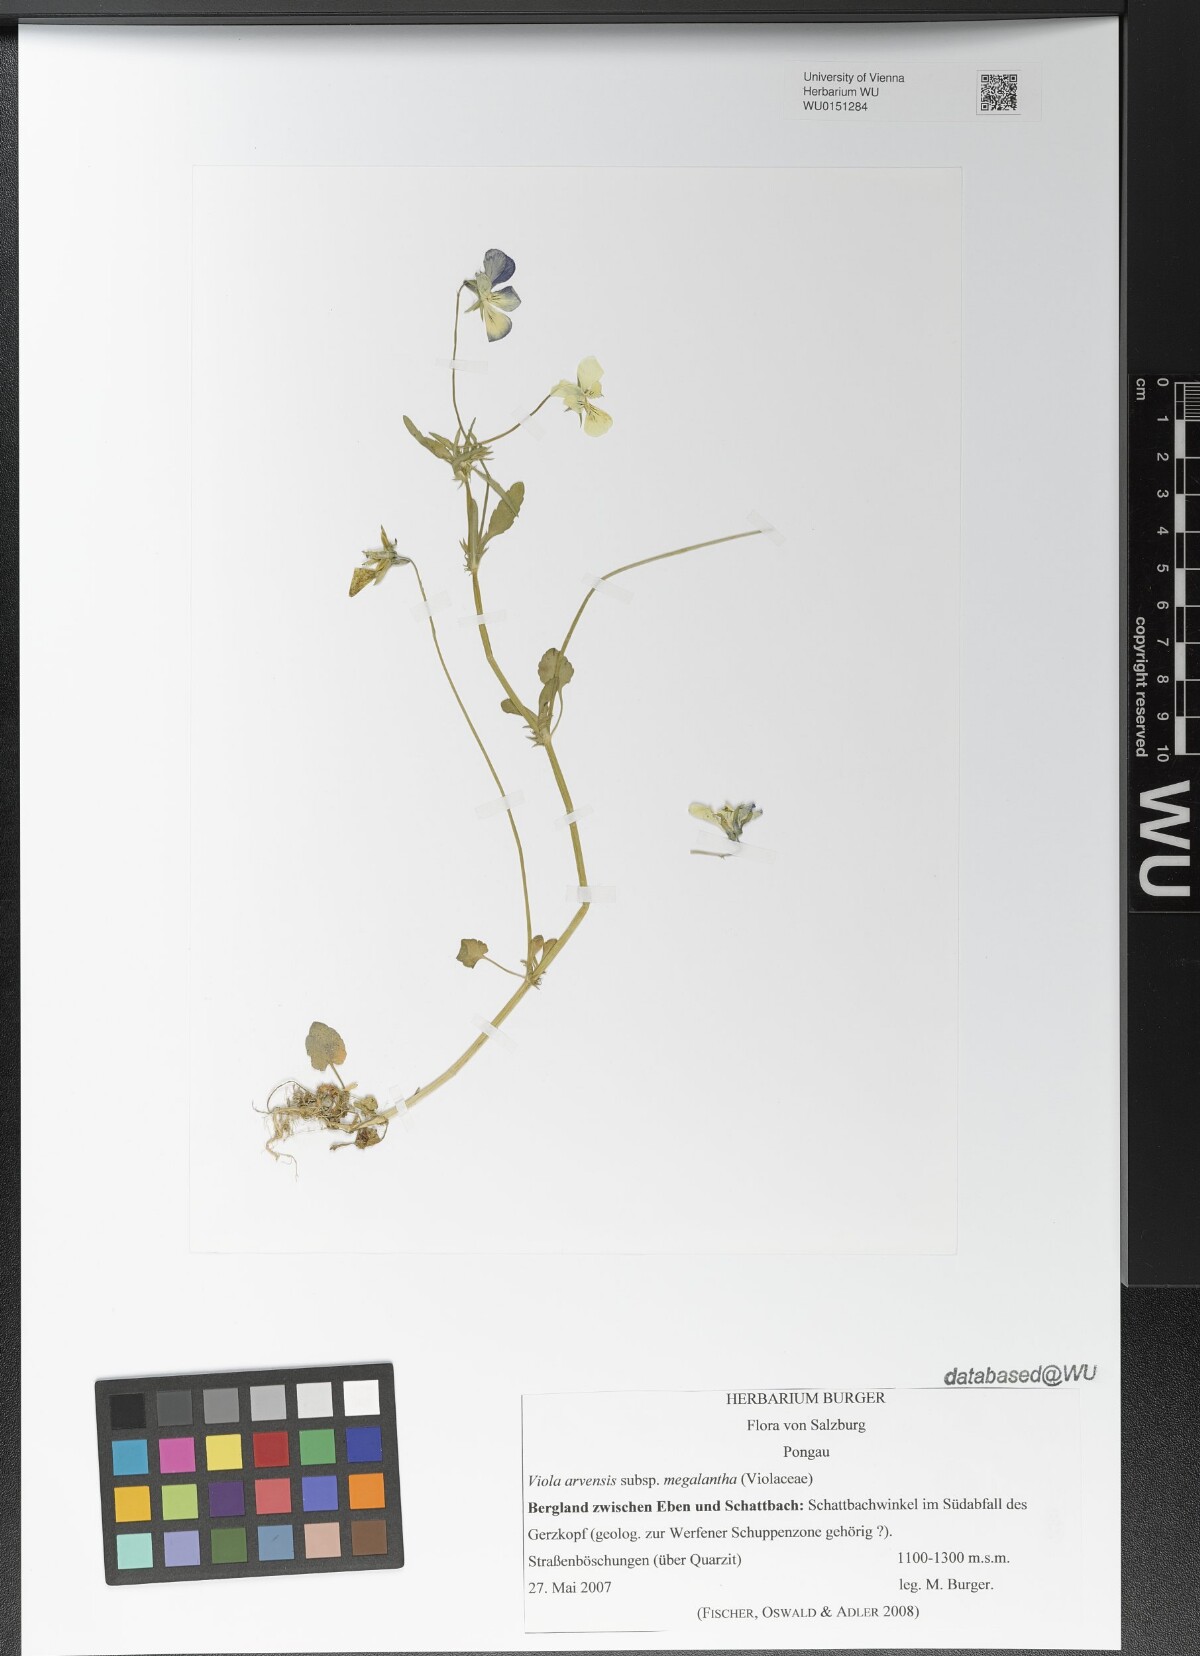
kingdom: Plantae
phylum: Tracheophyta
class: Magnoliopsida
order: Malpighiales
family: Violaceae
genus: Viola
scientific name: Viola arvensis
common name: Field pansy
